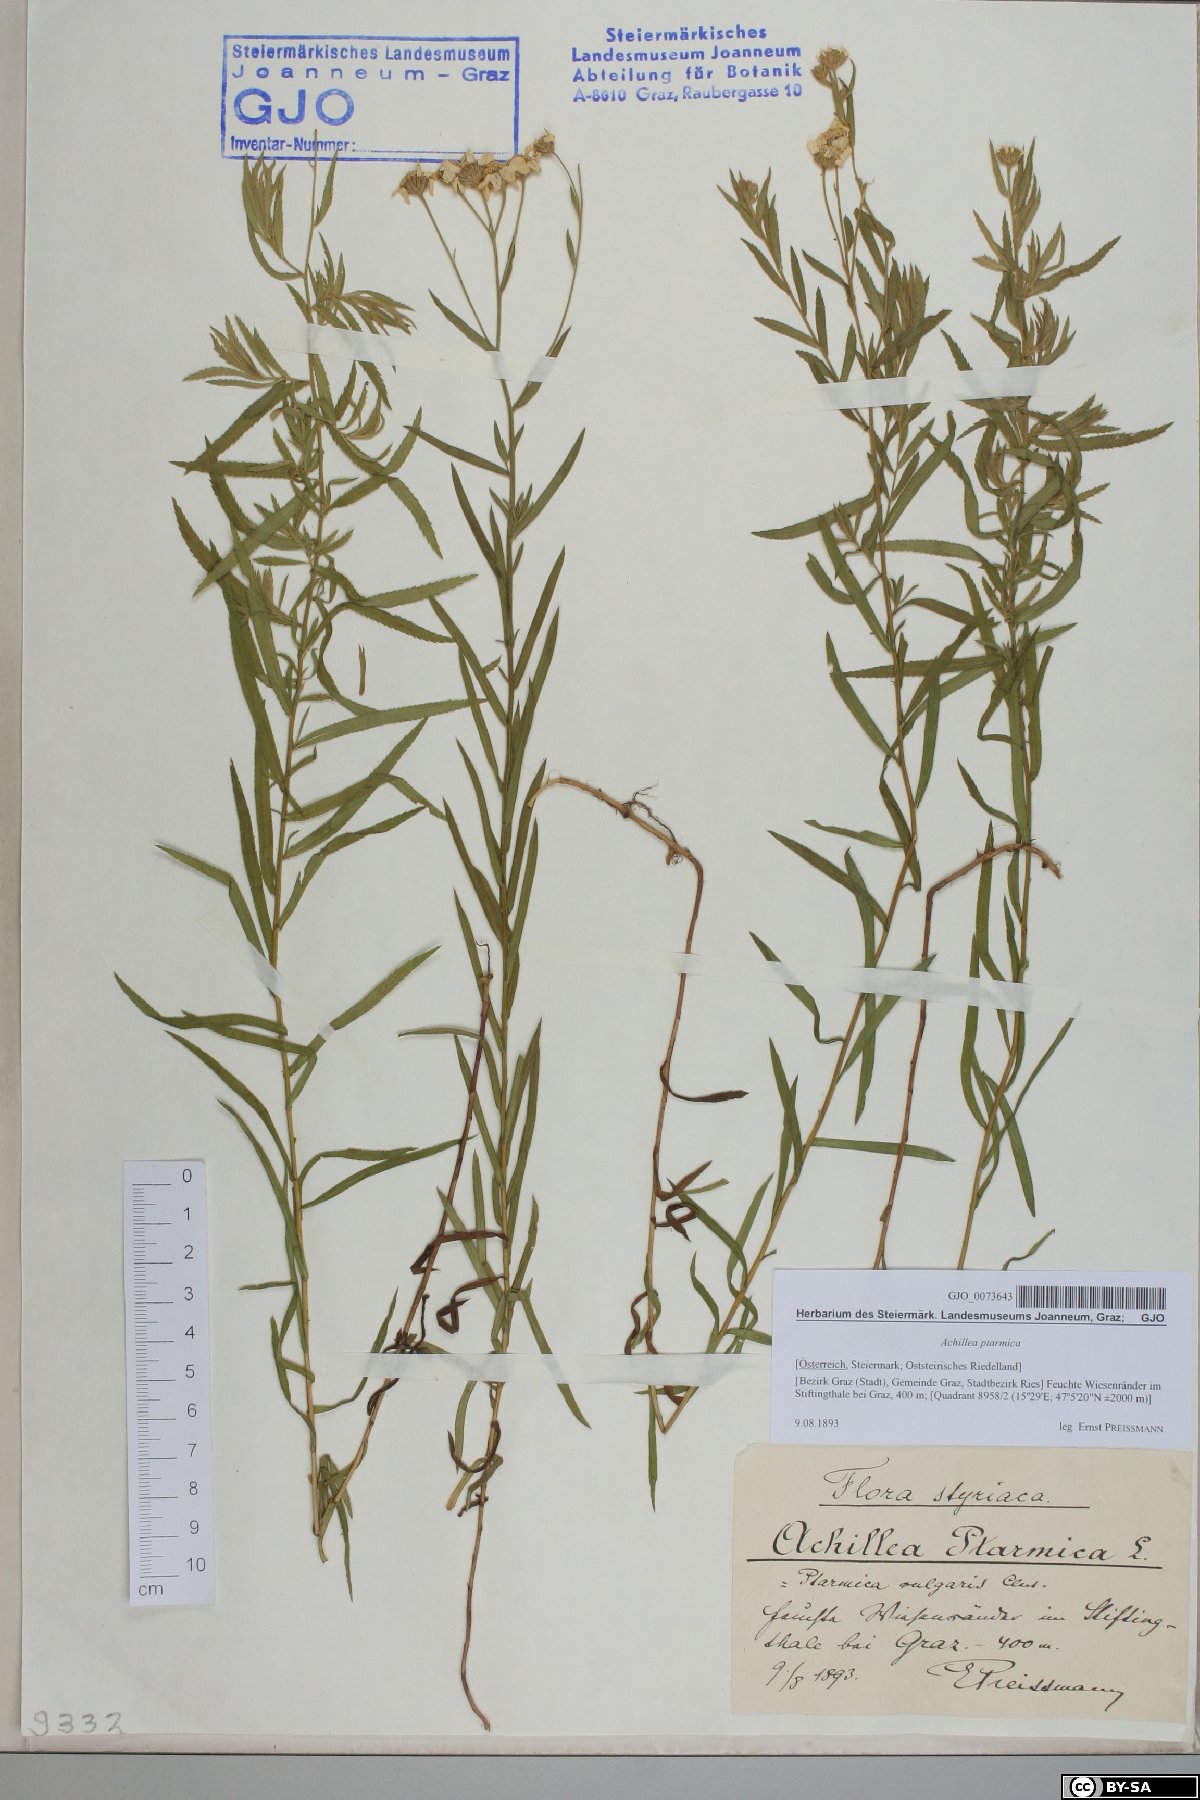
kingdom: Plantae
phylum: Tracheophyta
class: Magnoliopsida
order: Asterales
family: Asteraceae
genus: Achillea
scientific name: Achillea ptarmica
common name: Sneezeweed
